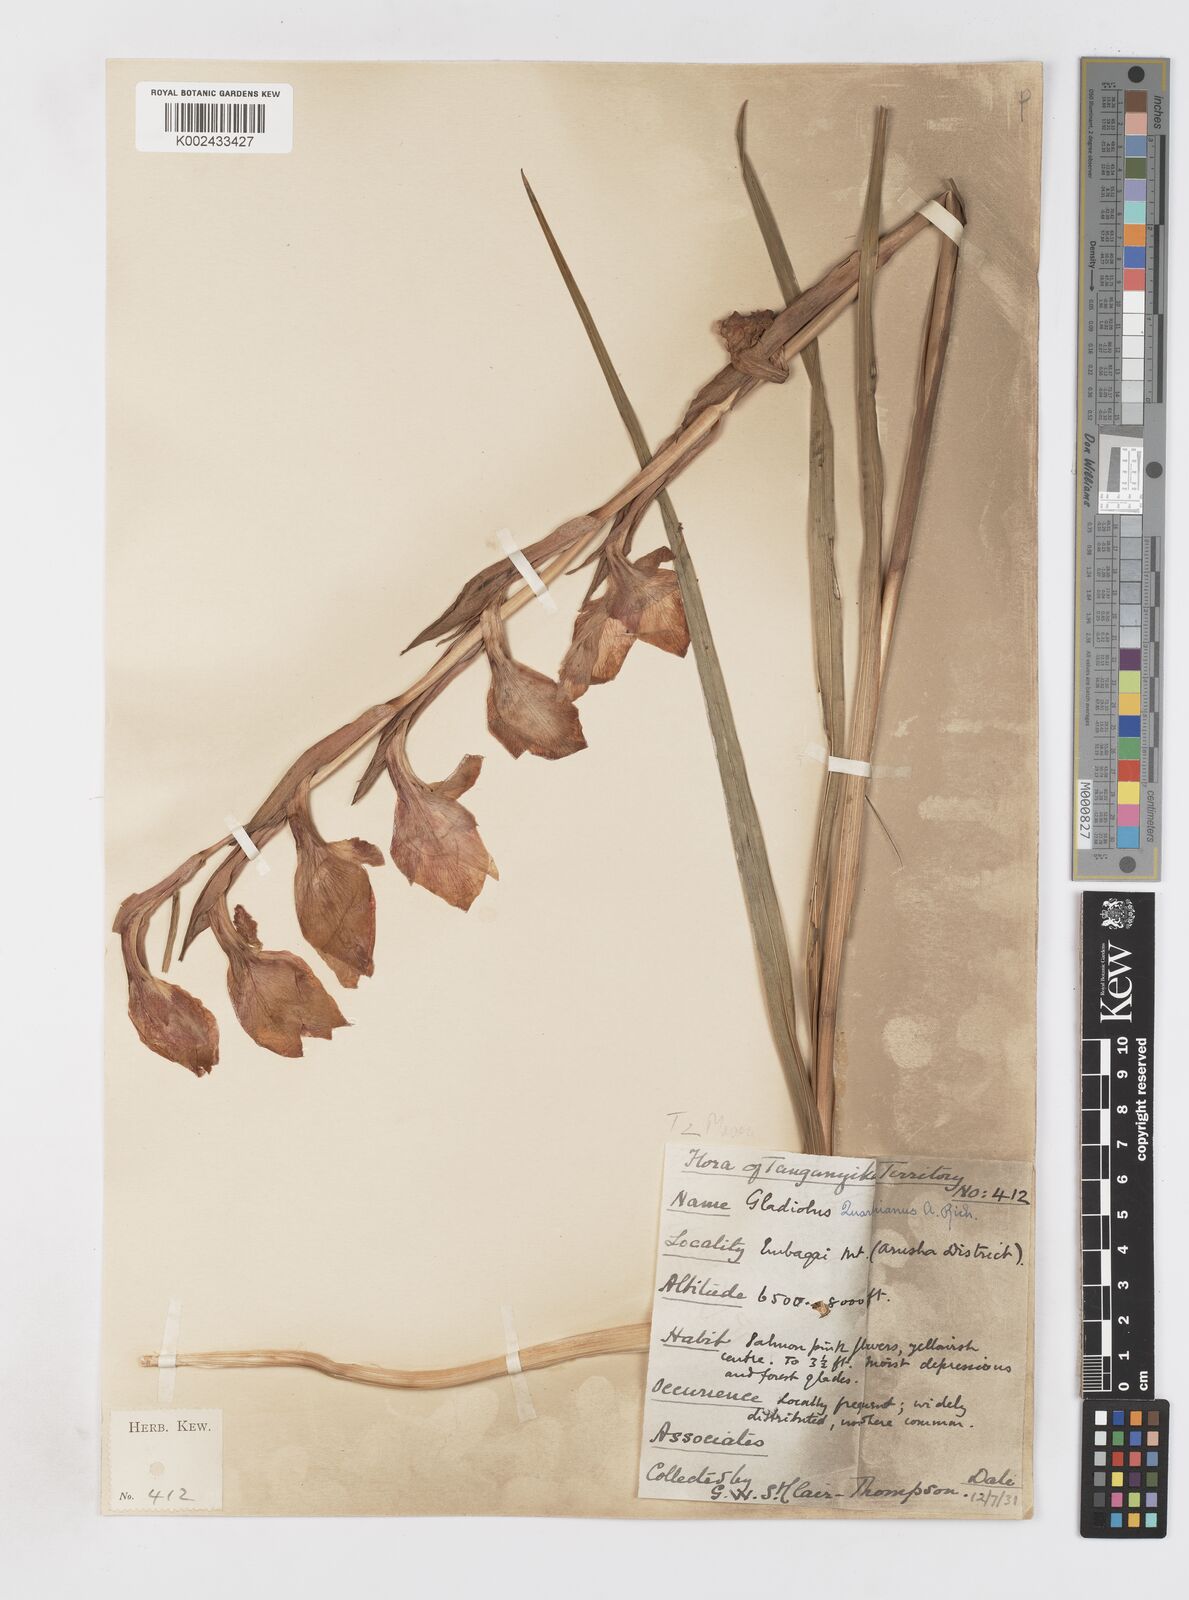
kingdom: Plantae
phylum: Tracheophyta
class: Liliopsida
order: Asparagales
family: Iridaceae
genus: Gladiolus
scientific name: Gladiolus dalenii
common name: Cornflag
